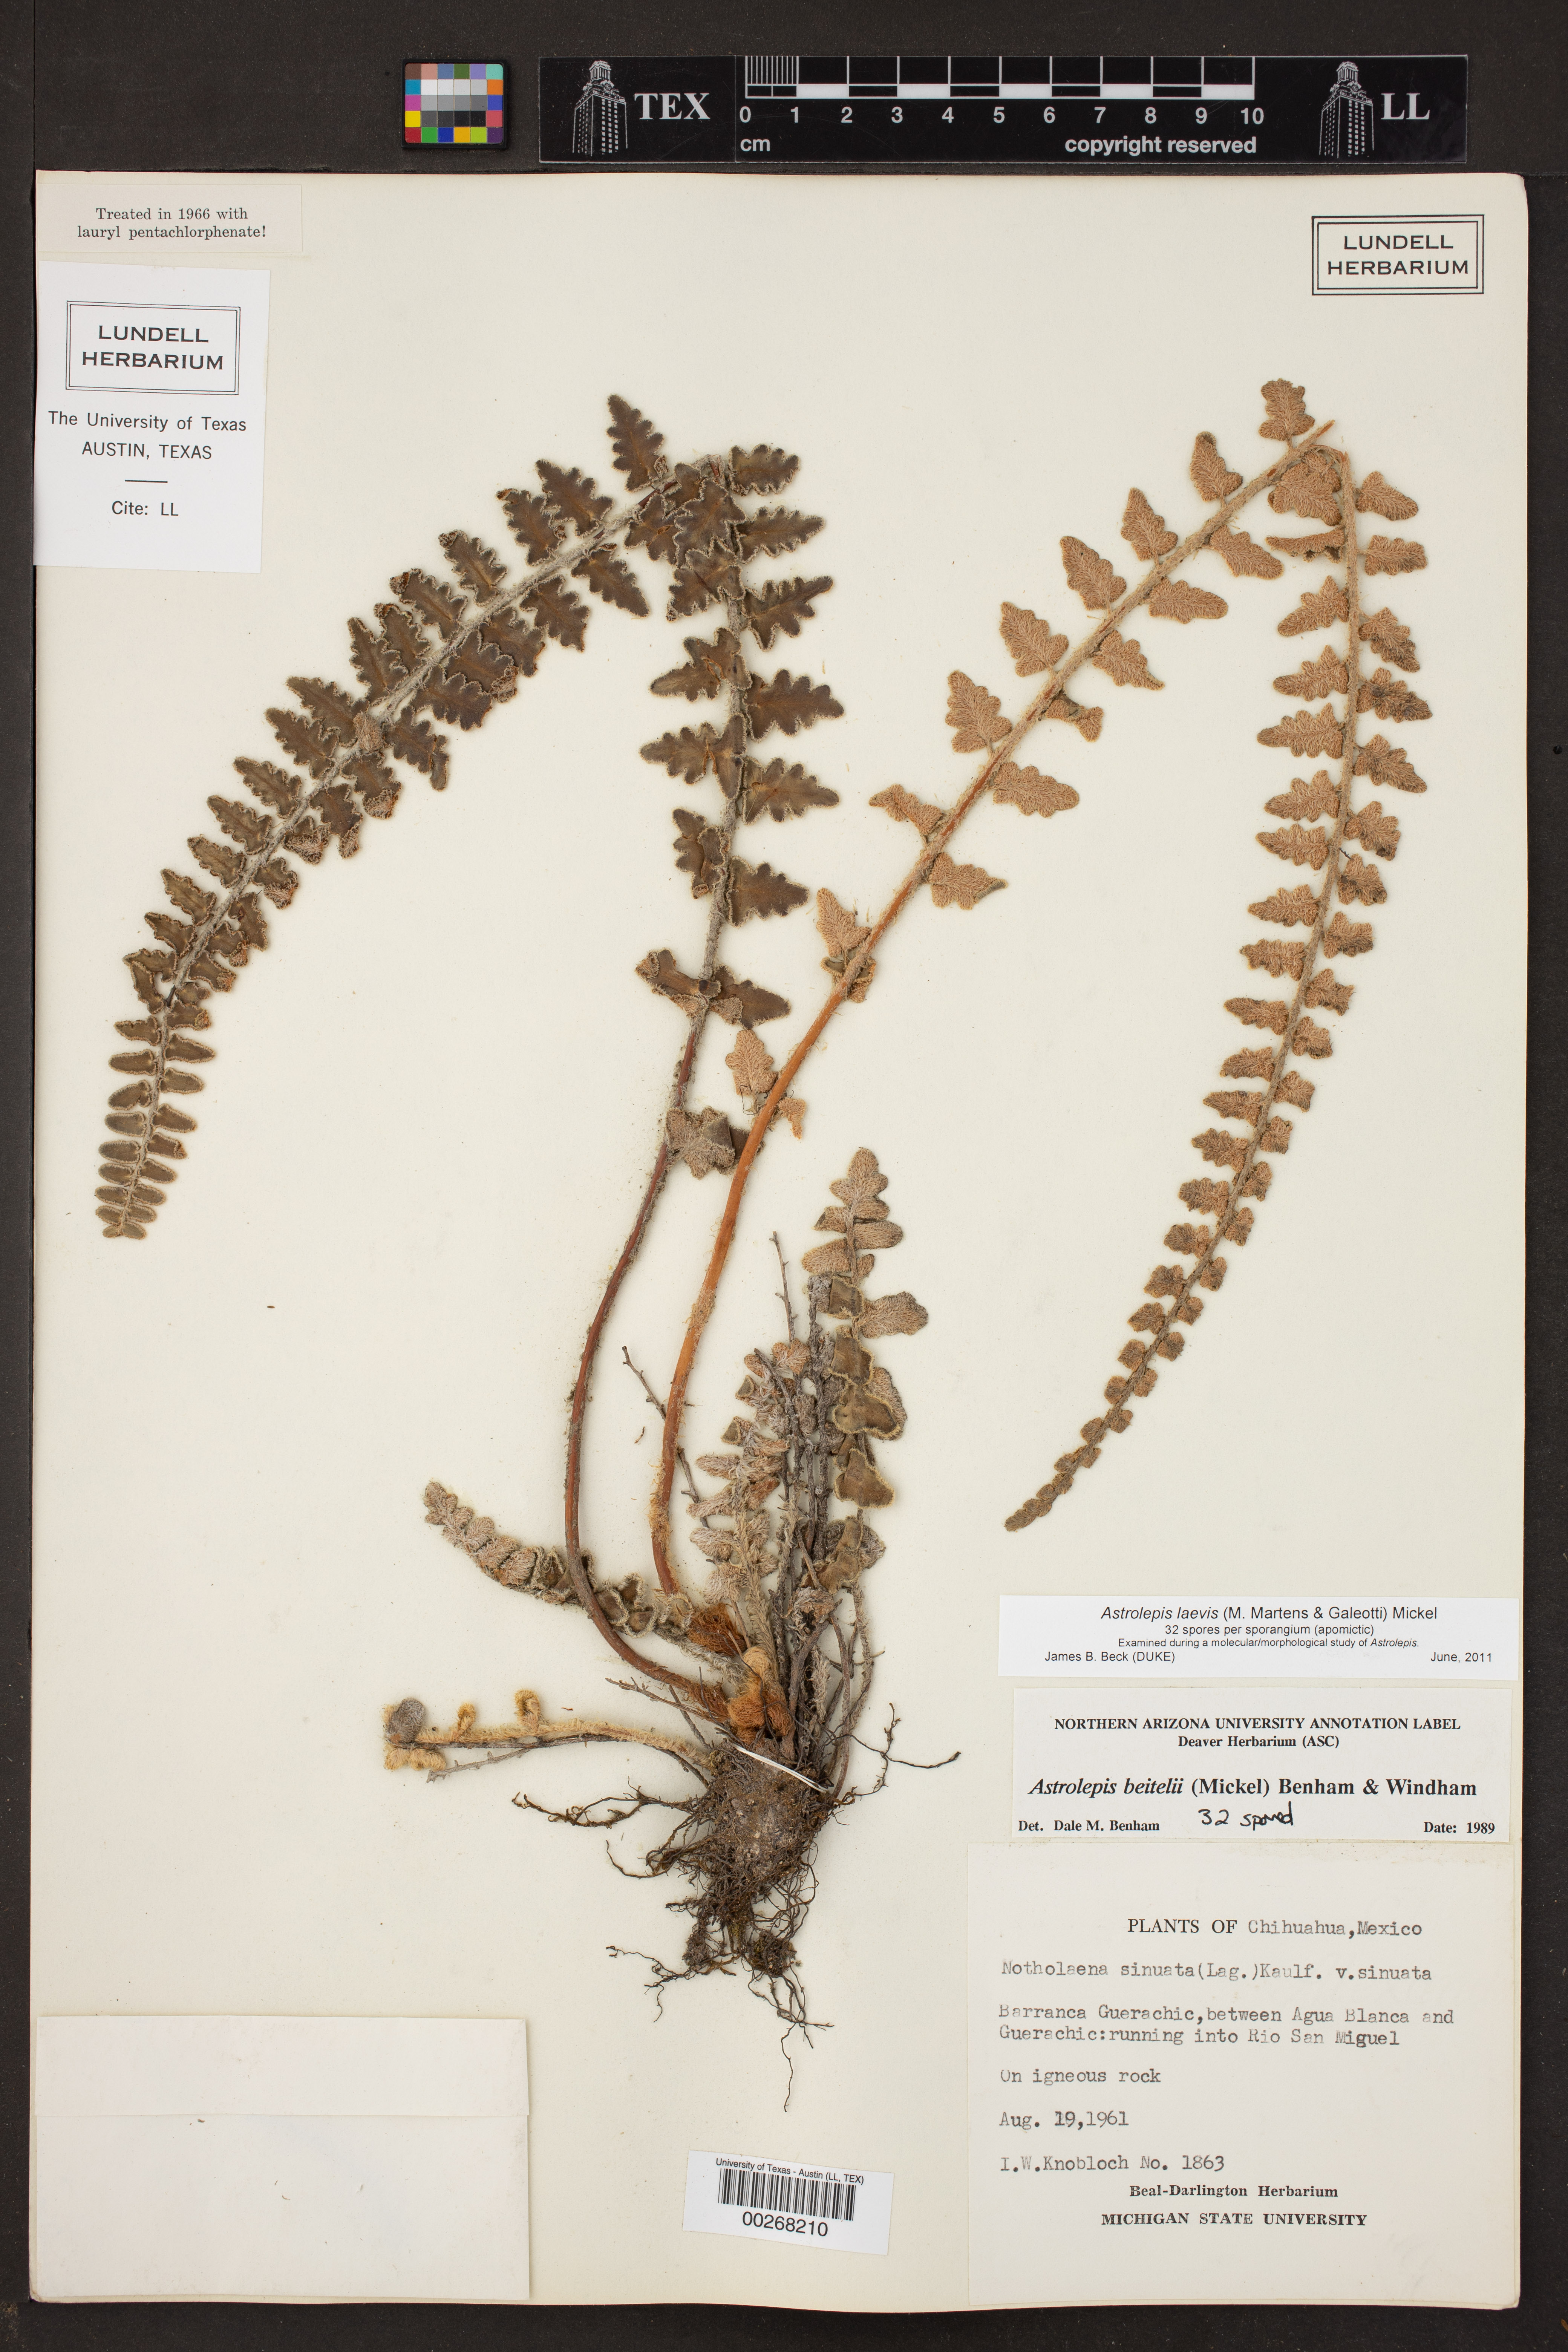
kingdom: Plantae
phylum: Tracheophyta
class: Polypodiopsida
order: Polypodiales
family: Pteridaceae
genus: Astrolepis
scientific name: Astrolepis laevis
